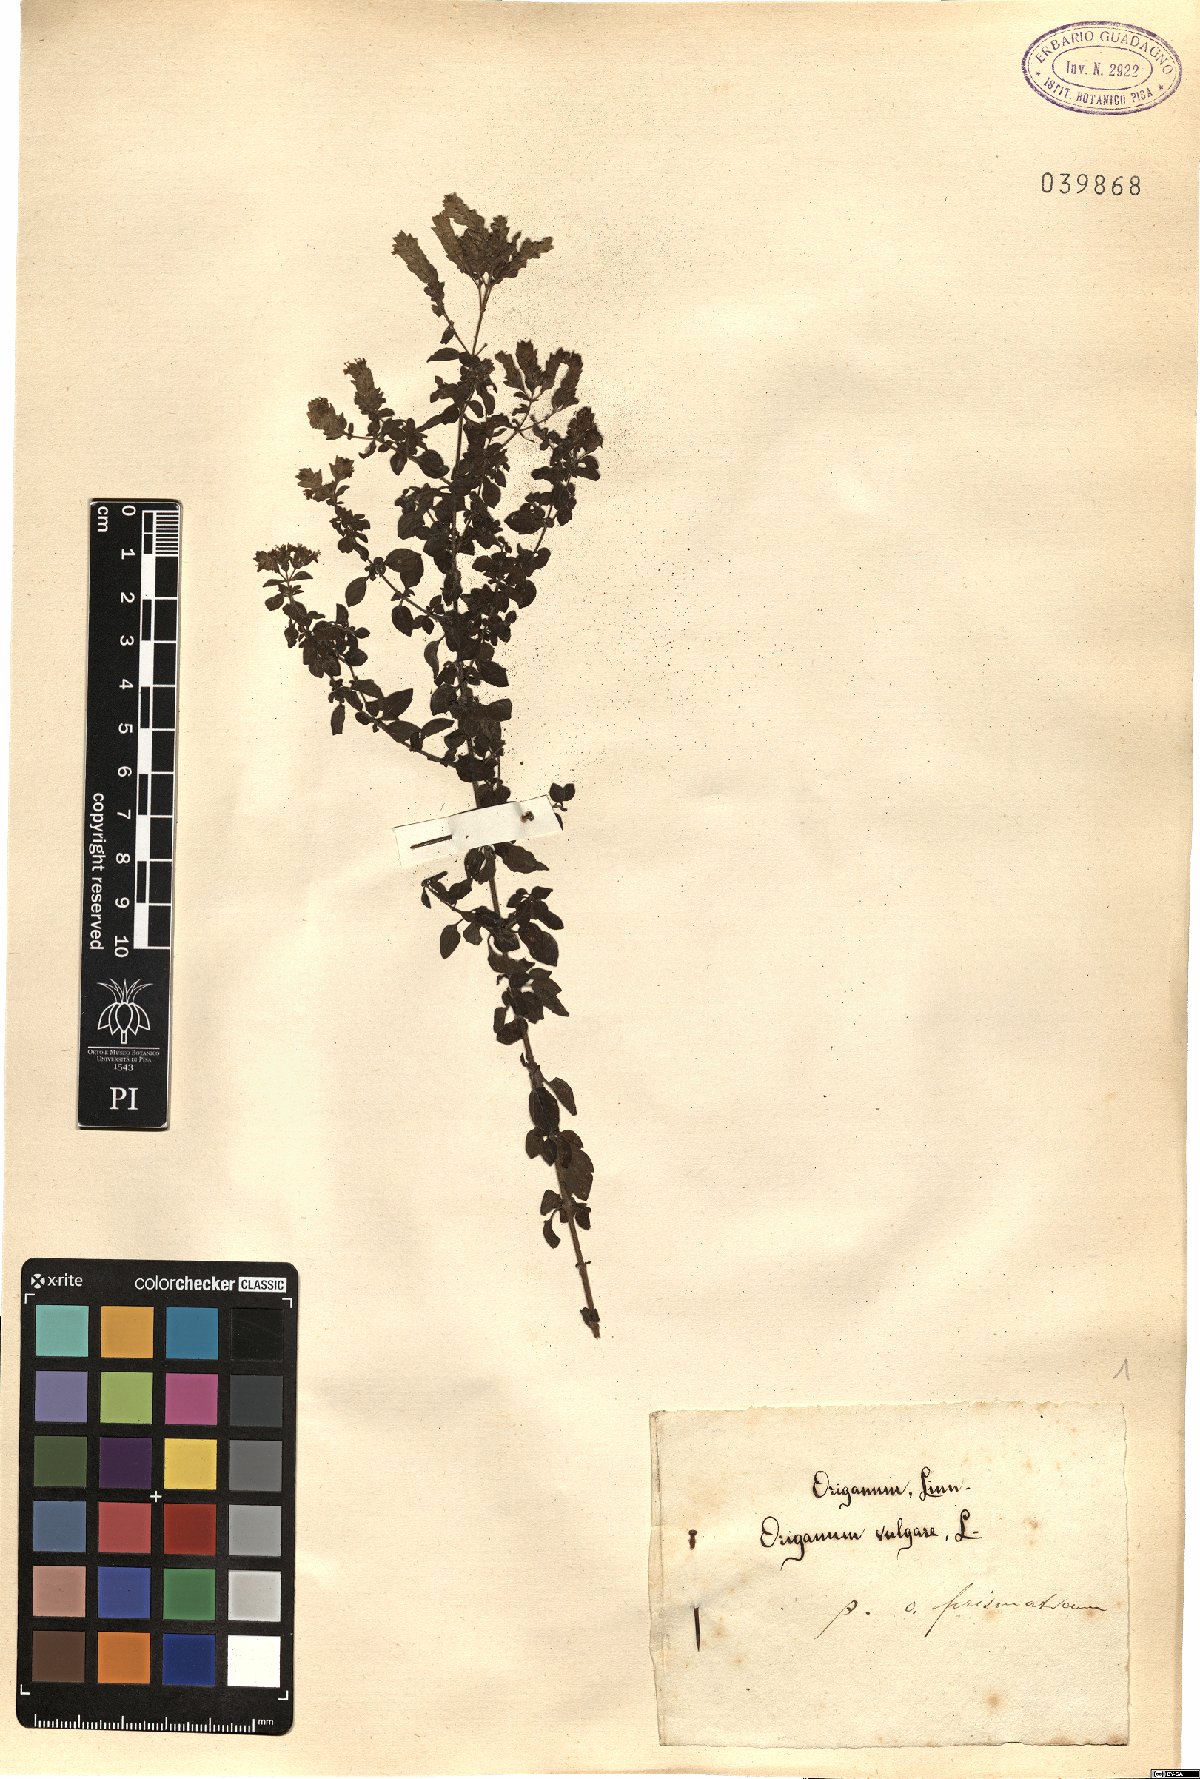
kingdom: Plantae
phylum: Tracheophyta
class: Magnoliopsida
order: Lamiales
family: Lamiaceae
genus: Origanum
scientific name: Origanum vulgare
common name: Wild marjoram
